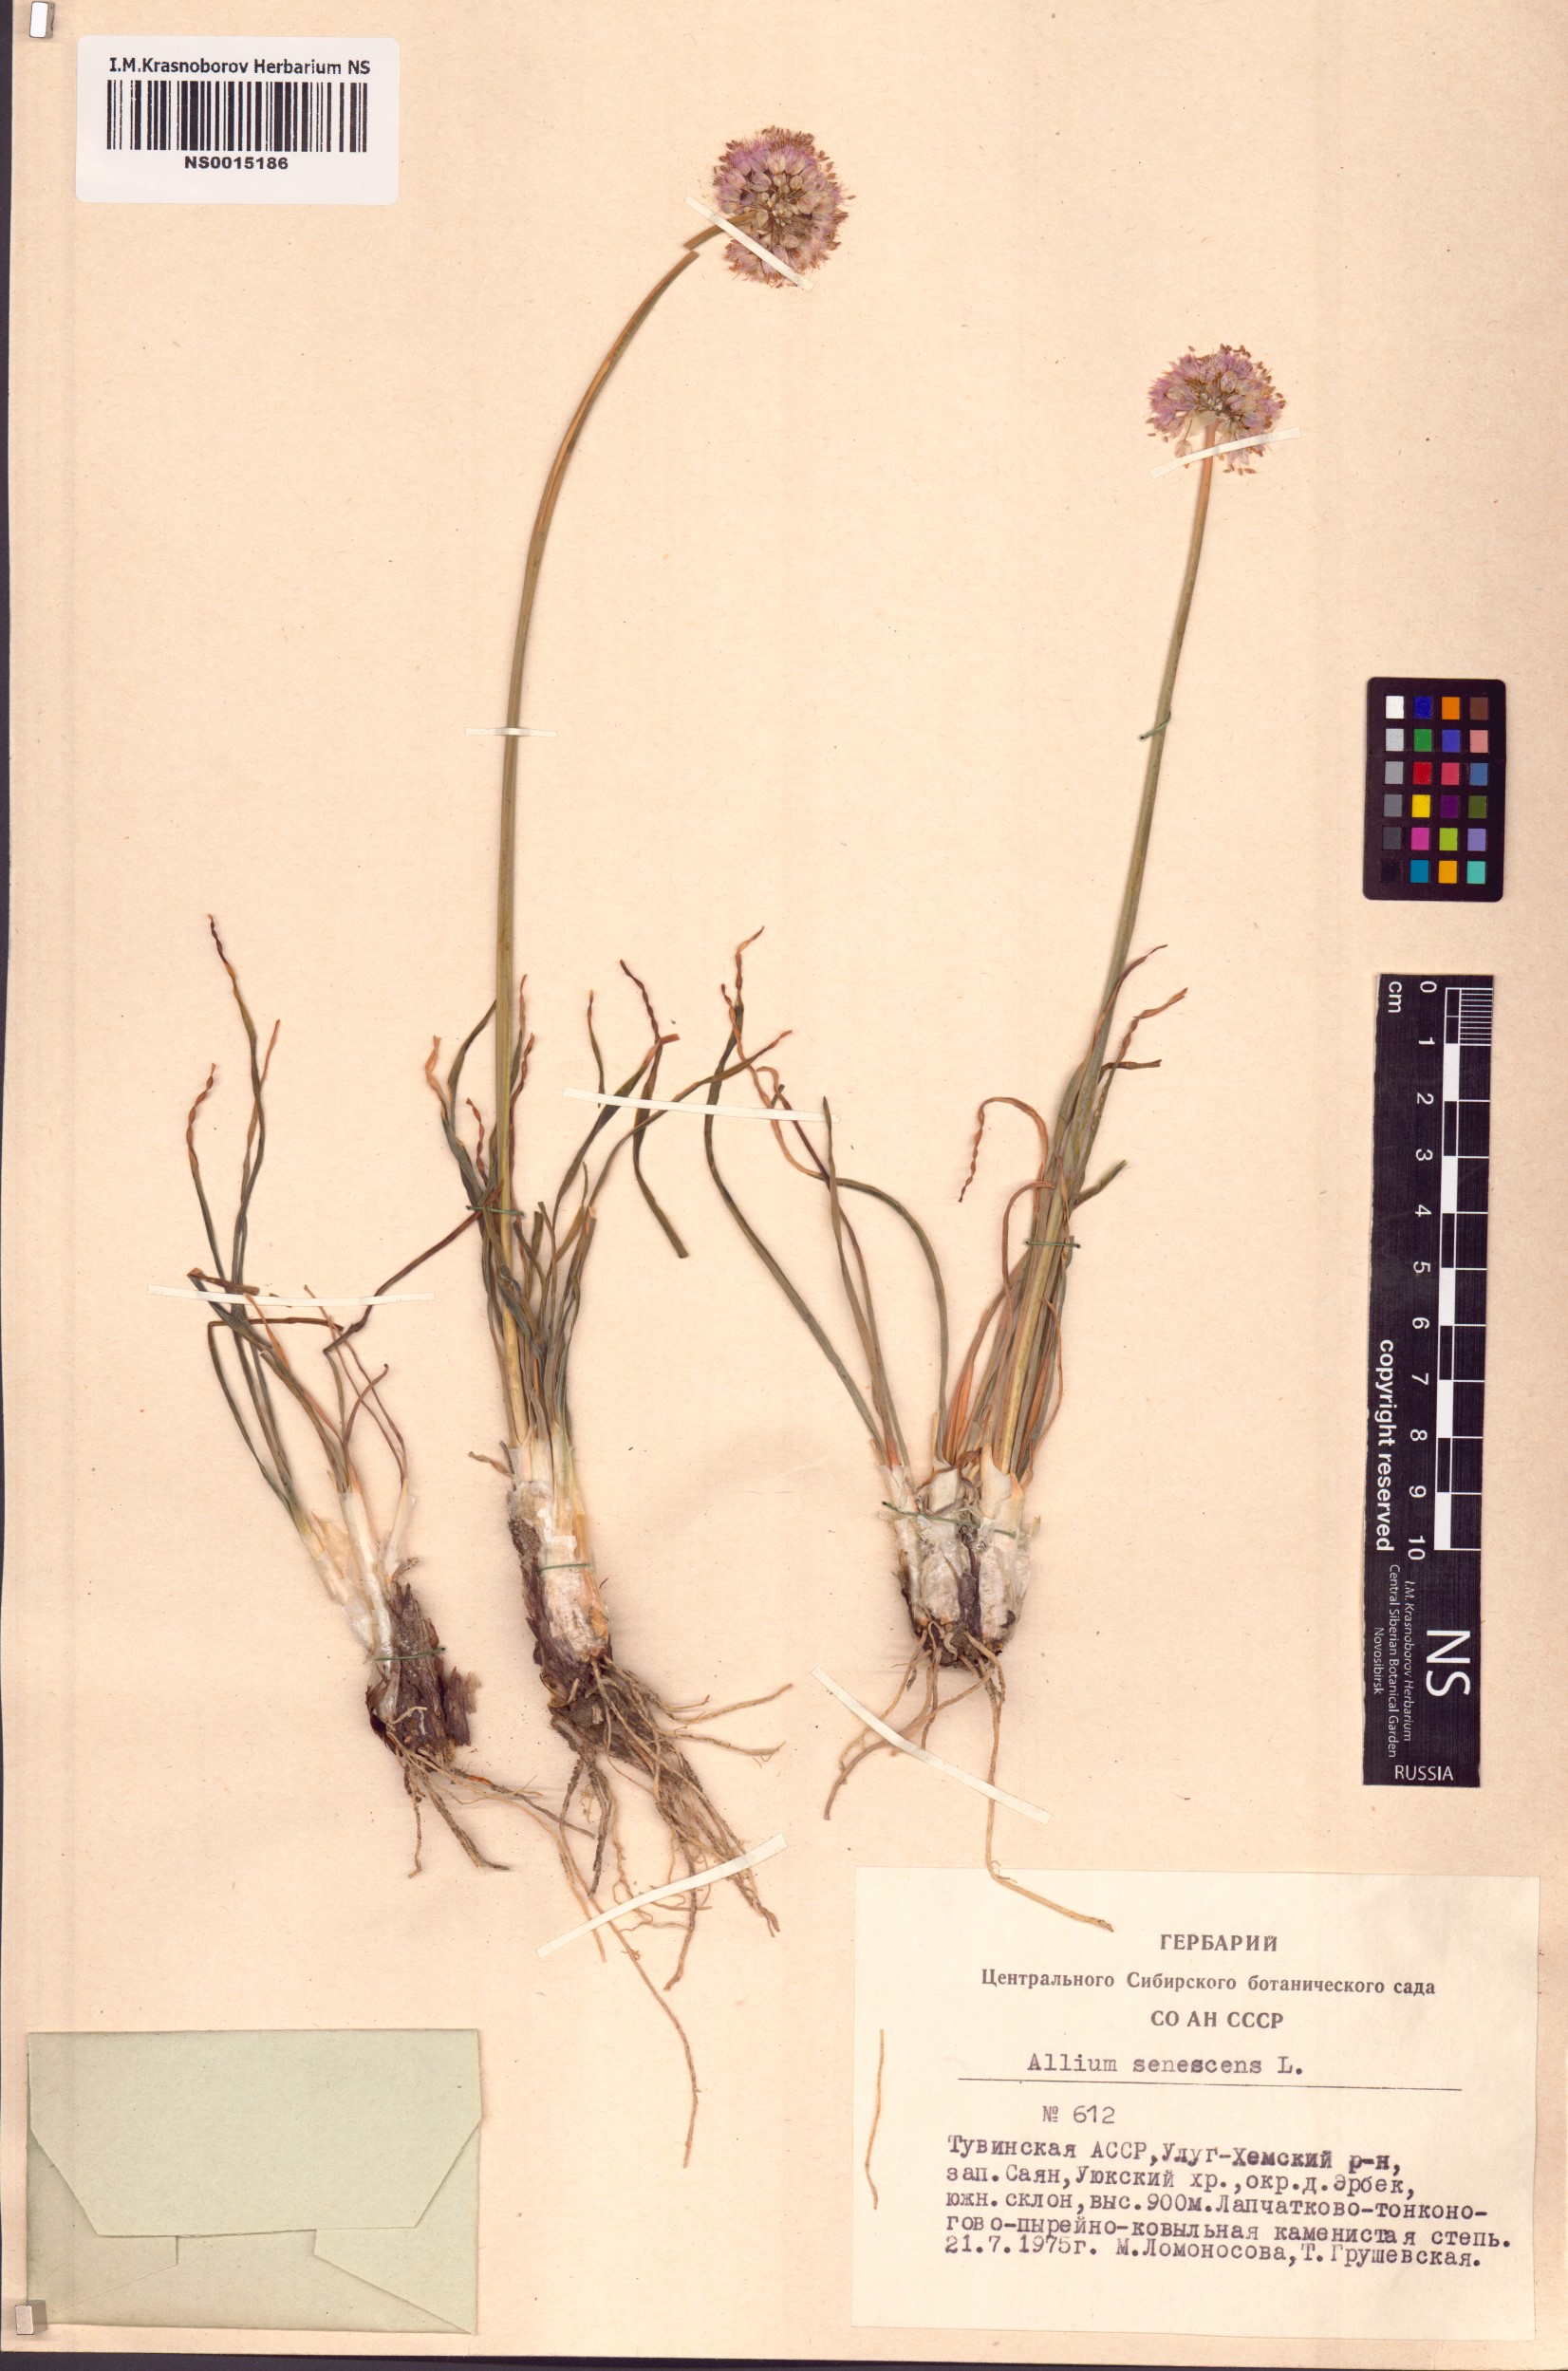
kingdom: Plantae
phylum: Tracheophyta
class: Liliopsida
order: Asparagales
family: Amaryllidaceae
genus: Allium
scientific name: Allium senescens
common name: German garlic
